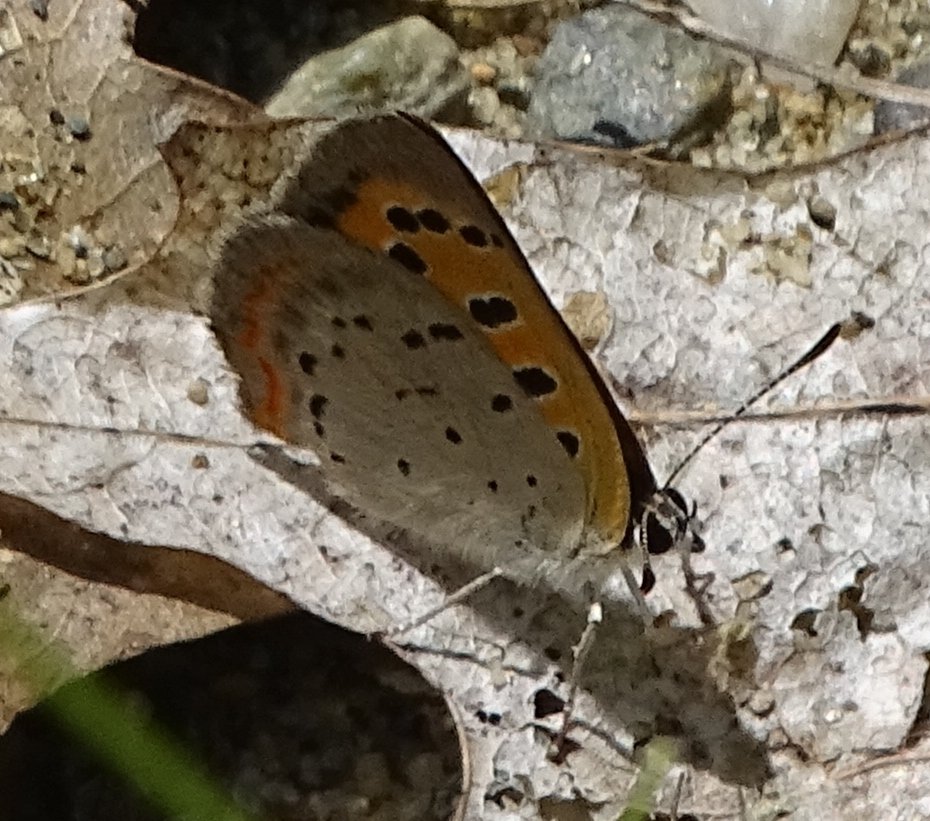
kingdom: Animalia
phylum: Arthropoda
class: Insecta
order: Lepidoptera
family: Lycaenidae
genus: Lycaena
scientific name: Lycaena phlaeas
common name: American Copper
